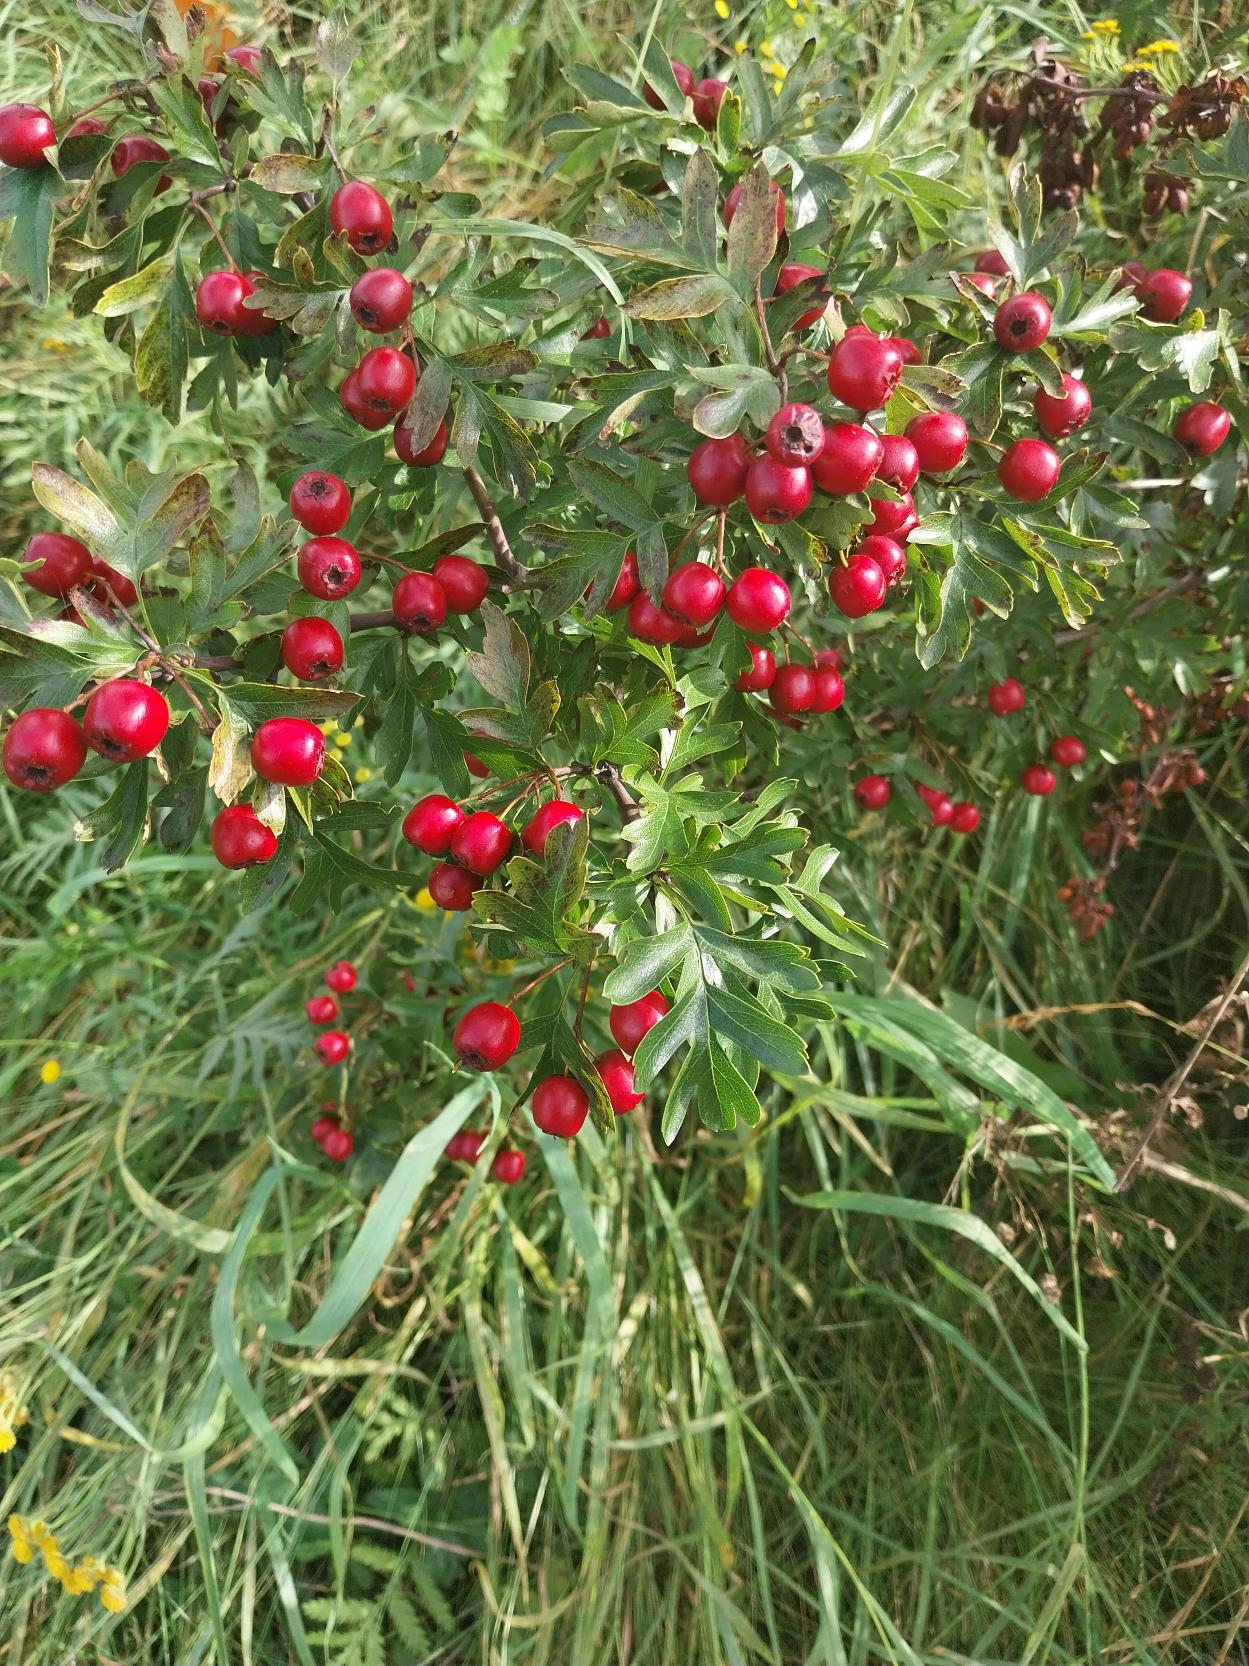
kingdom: Plantae
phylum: Tracheophyta
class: Magnoliopsida
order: Rosales
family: Rosaceae
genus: Crataegus
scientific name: Crataegus monogyna
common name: Engriflet hvidtjørn
